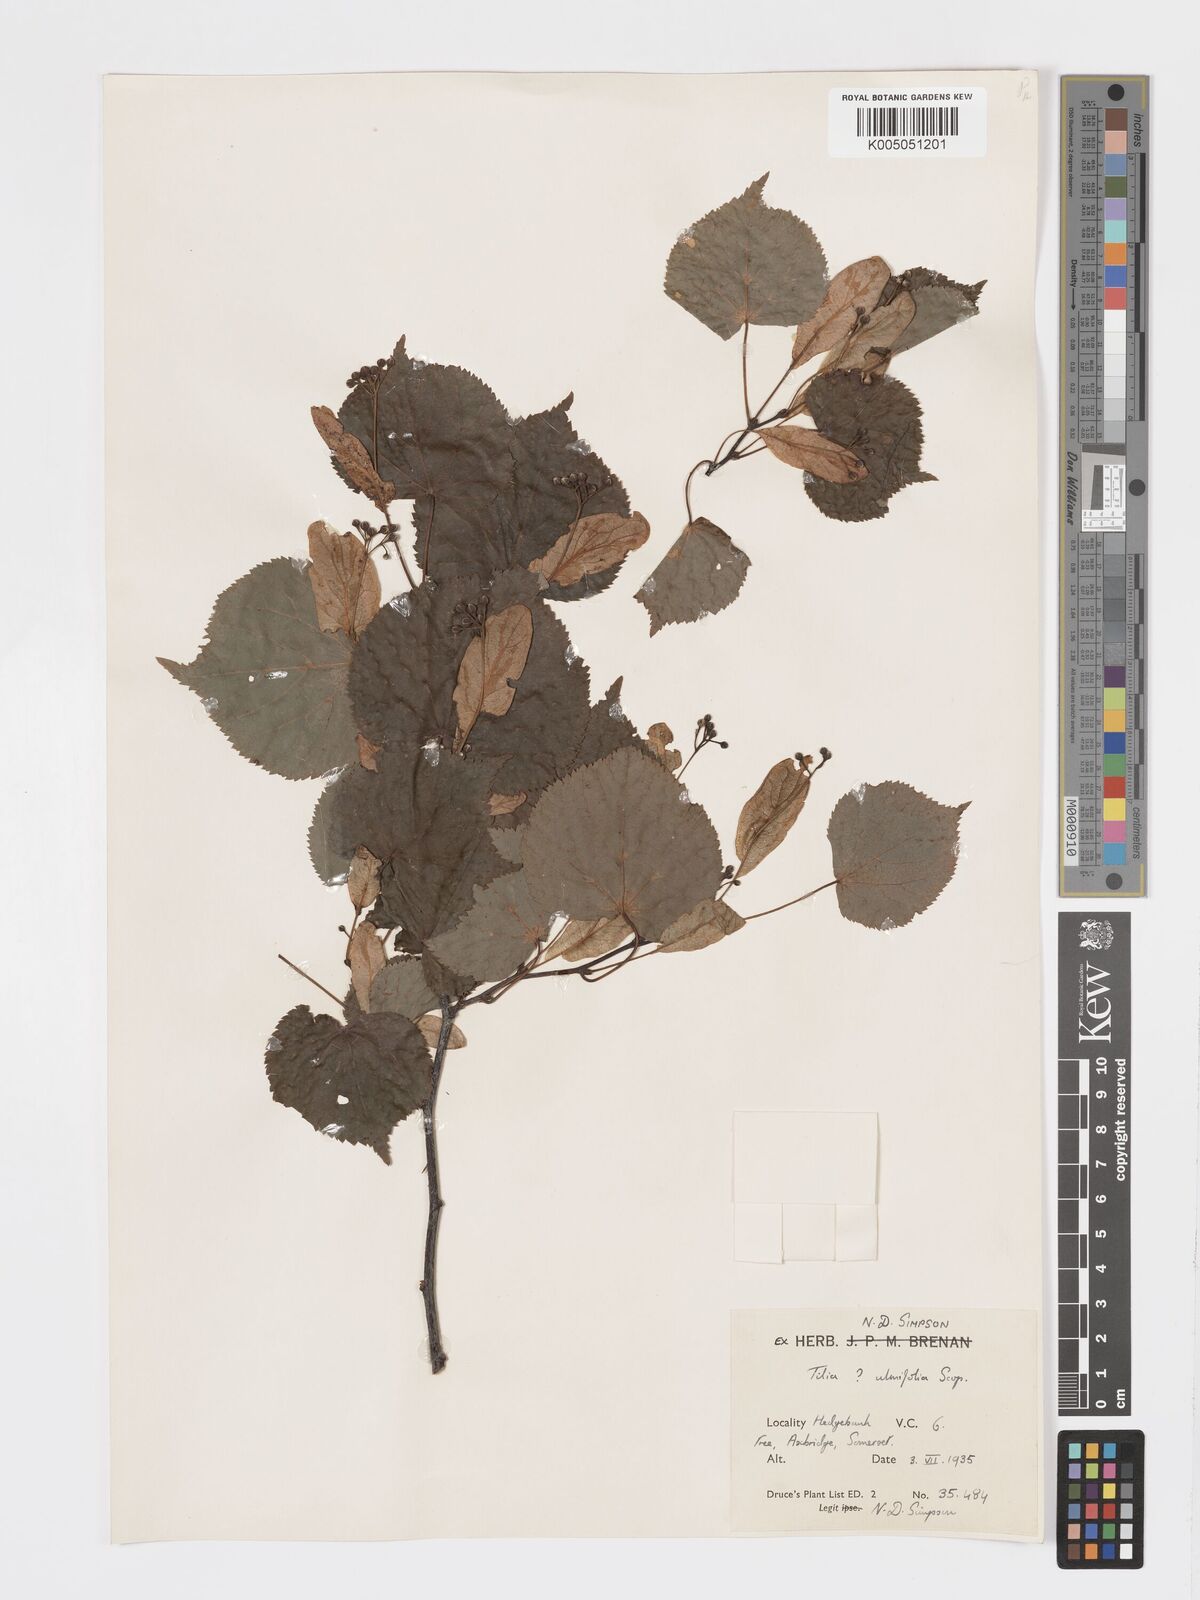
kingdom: Plantae
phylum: Tracheophyta
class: Magnoliopsida
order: Malvales
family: Malvaceae
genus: Tilia
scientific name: Tilia
